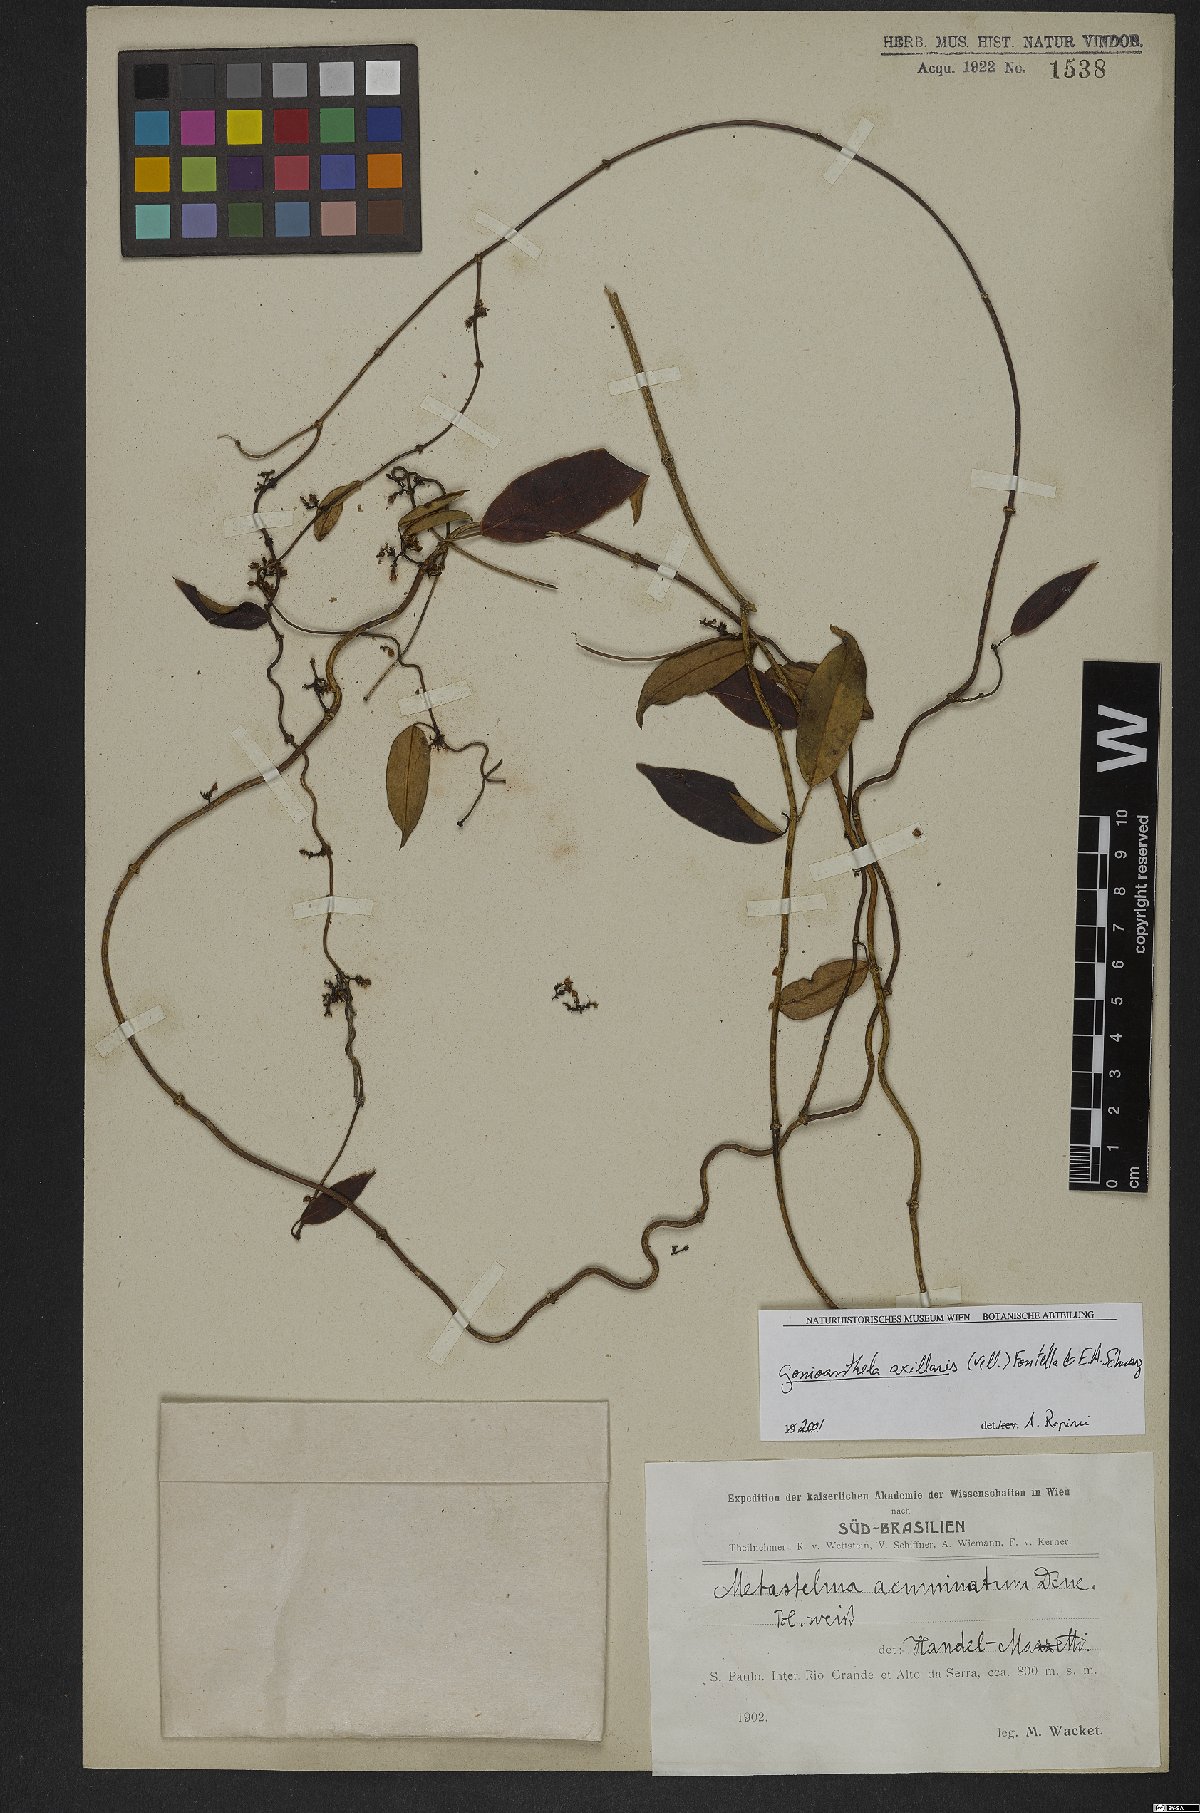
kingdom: Plantae
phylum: Tracheophyta
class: Magnoliopsida
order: Gentianales
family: Apocynaceae
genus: Peplonia
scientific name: Peplonia axillaris
